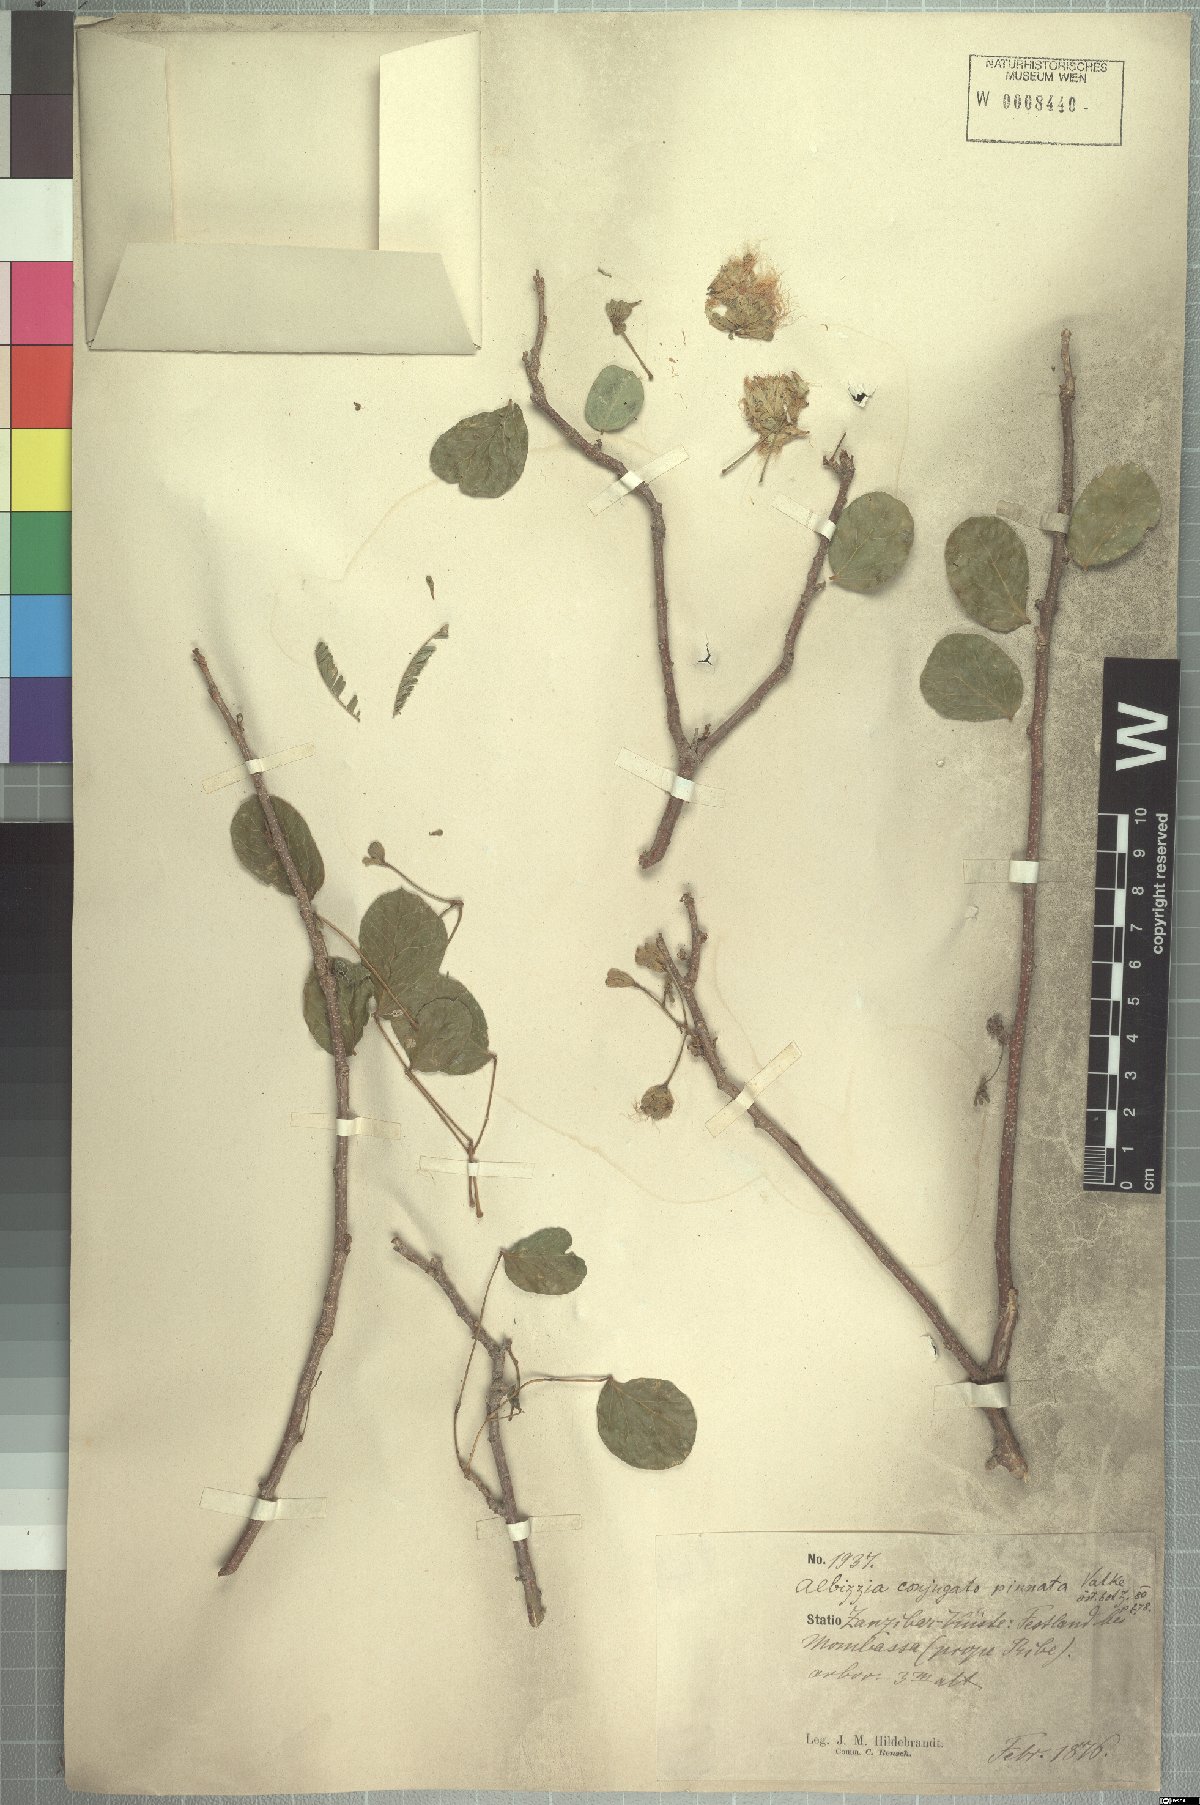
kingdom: Plantae
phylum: Tracheophyta
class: Magnoliopsida
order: Fabales
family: Fabaceae
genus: Albizia
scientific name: Albizia anthelmintica
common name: Worm-bark false-thorn
